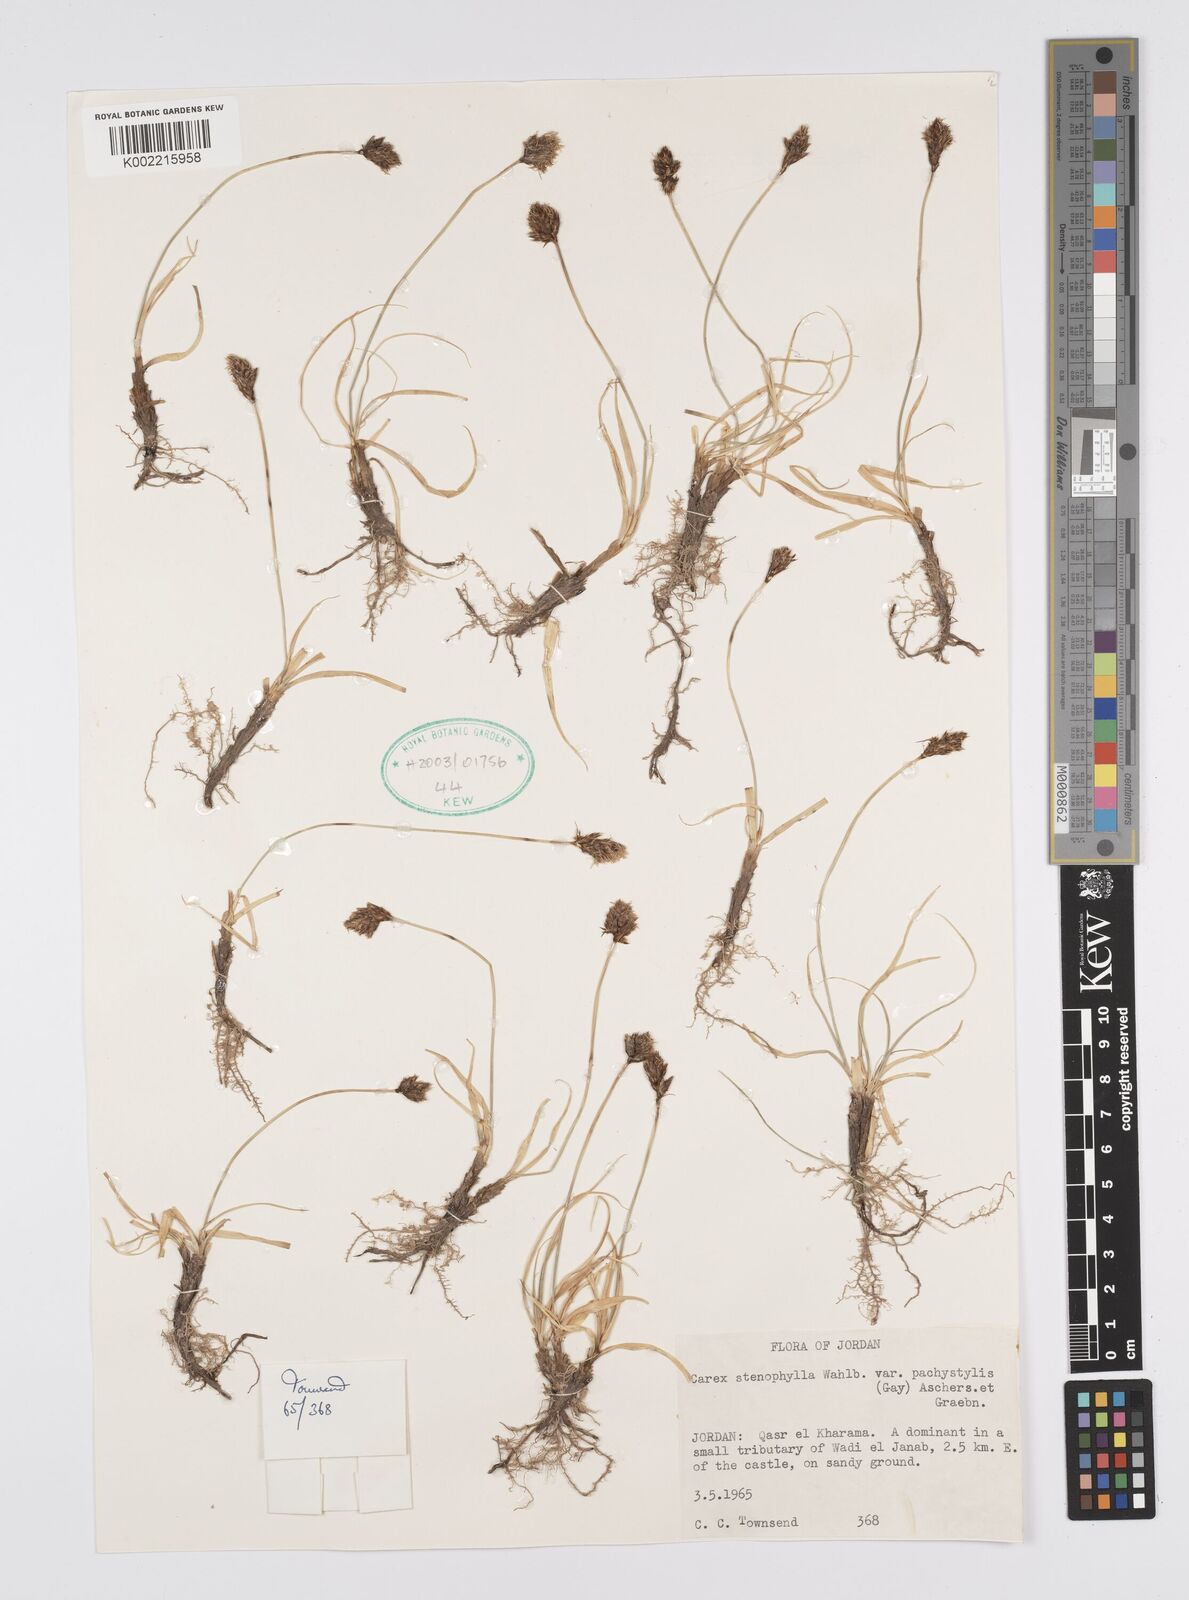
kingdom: Plantae
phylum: Tracheophyta
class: Liliopsida
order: Poales
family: Cyperaceae
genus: Carex
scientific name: Carex pachystylis
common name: Thick-stem sedge
